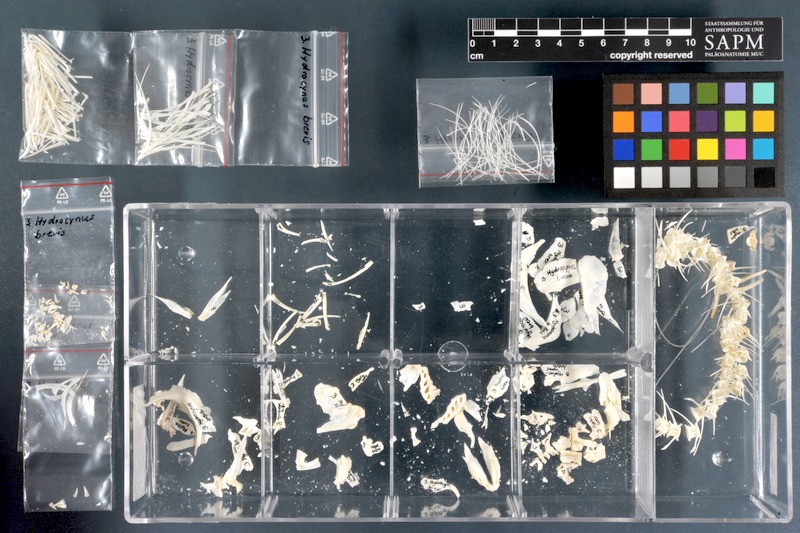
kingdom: Animalia
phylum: Chordata
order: Characiformes
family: Alestidae
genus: Hydrocynus
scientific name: Hydrocynus brevis
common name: Tiger fish
